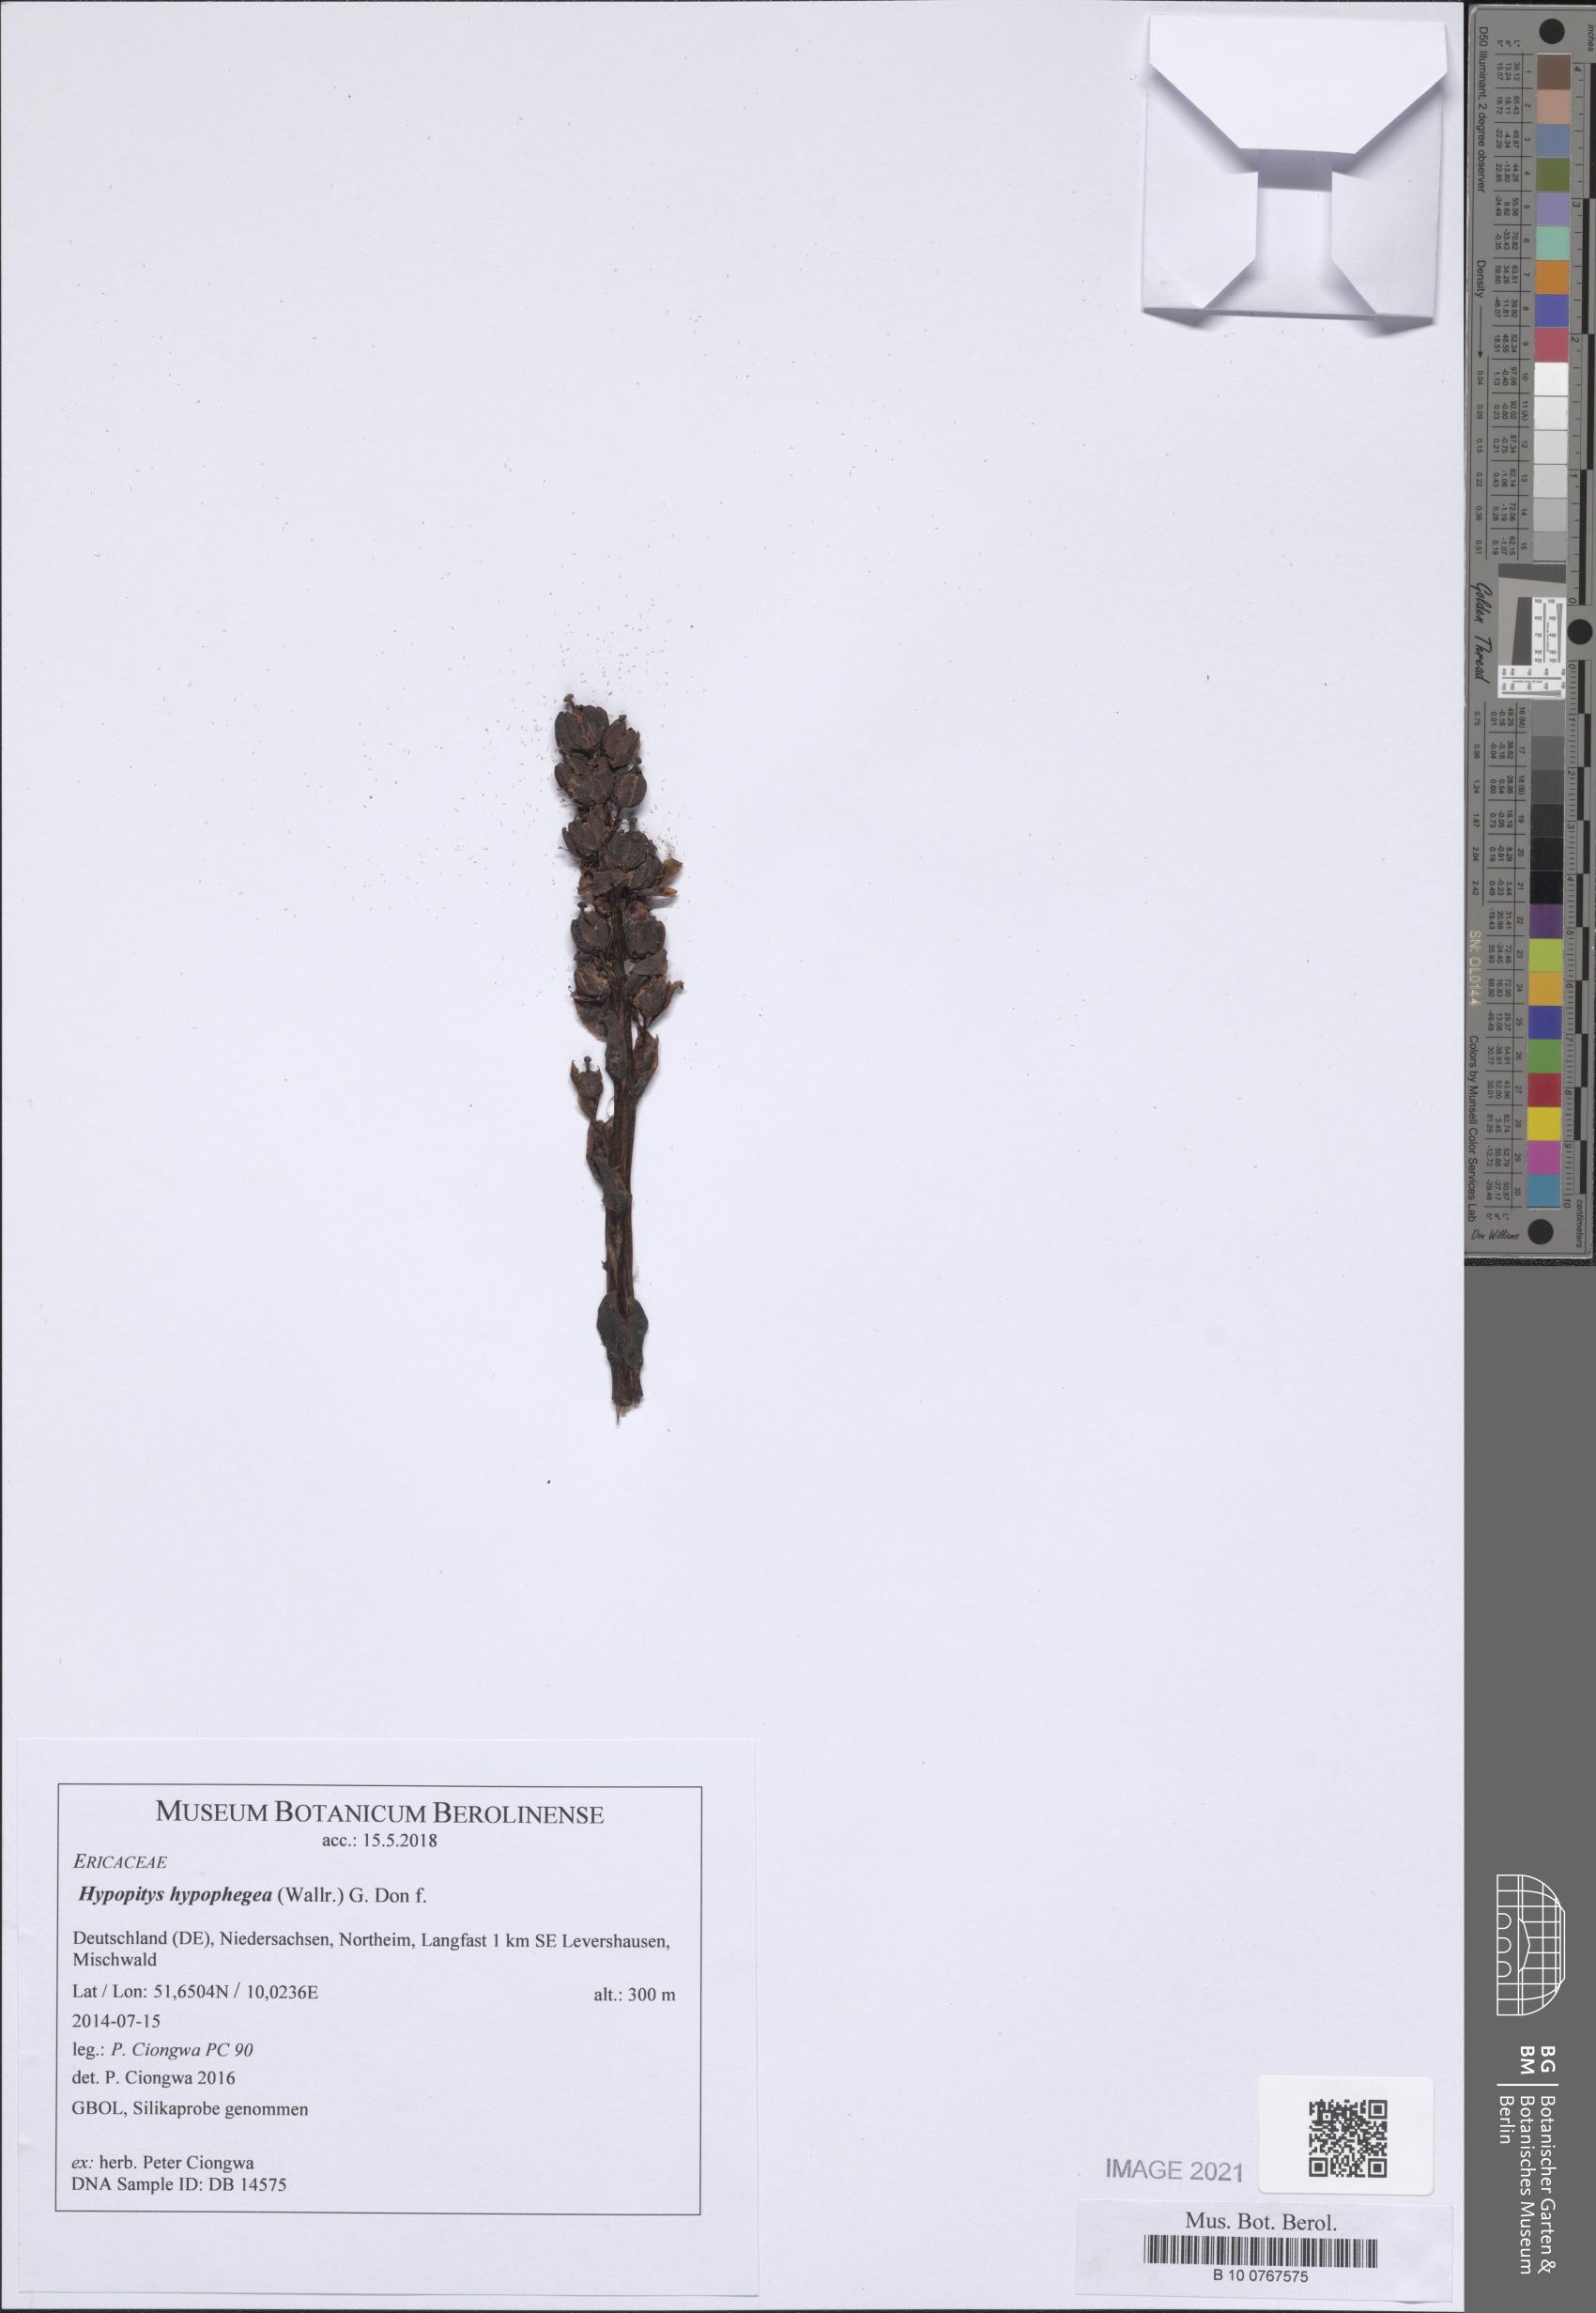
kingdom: Plantae
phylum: Tracheophyta
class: Magnoliopsida
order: Ericales
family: Ericaceae
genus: Hypopitys
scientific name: Hypopitys hypophegea
